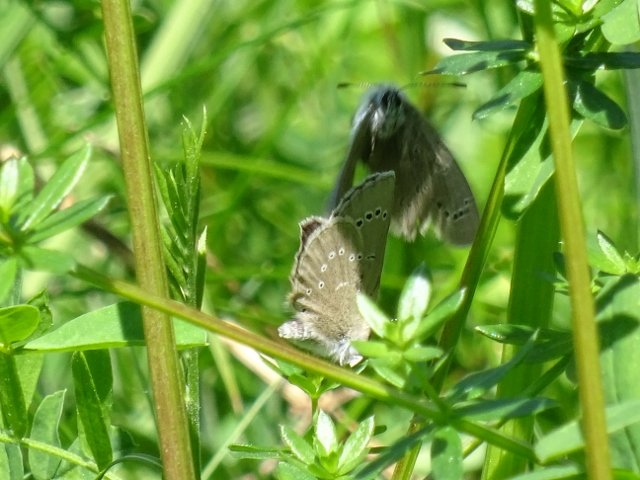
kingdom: Animalia
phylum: Arthropoda
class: Insecta
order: Lepidoptera
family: Lycaenidae
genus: Glaucopsyche
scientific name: Glaucopsyche lygdamus
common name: Silvery Blue
